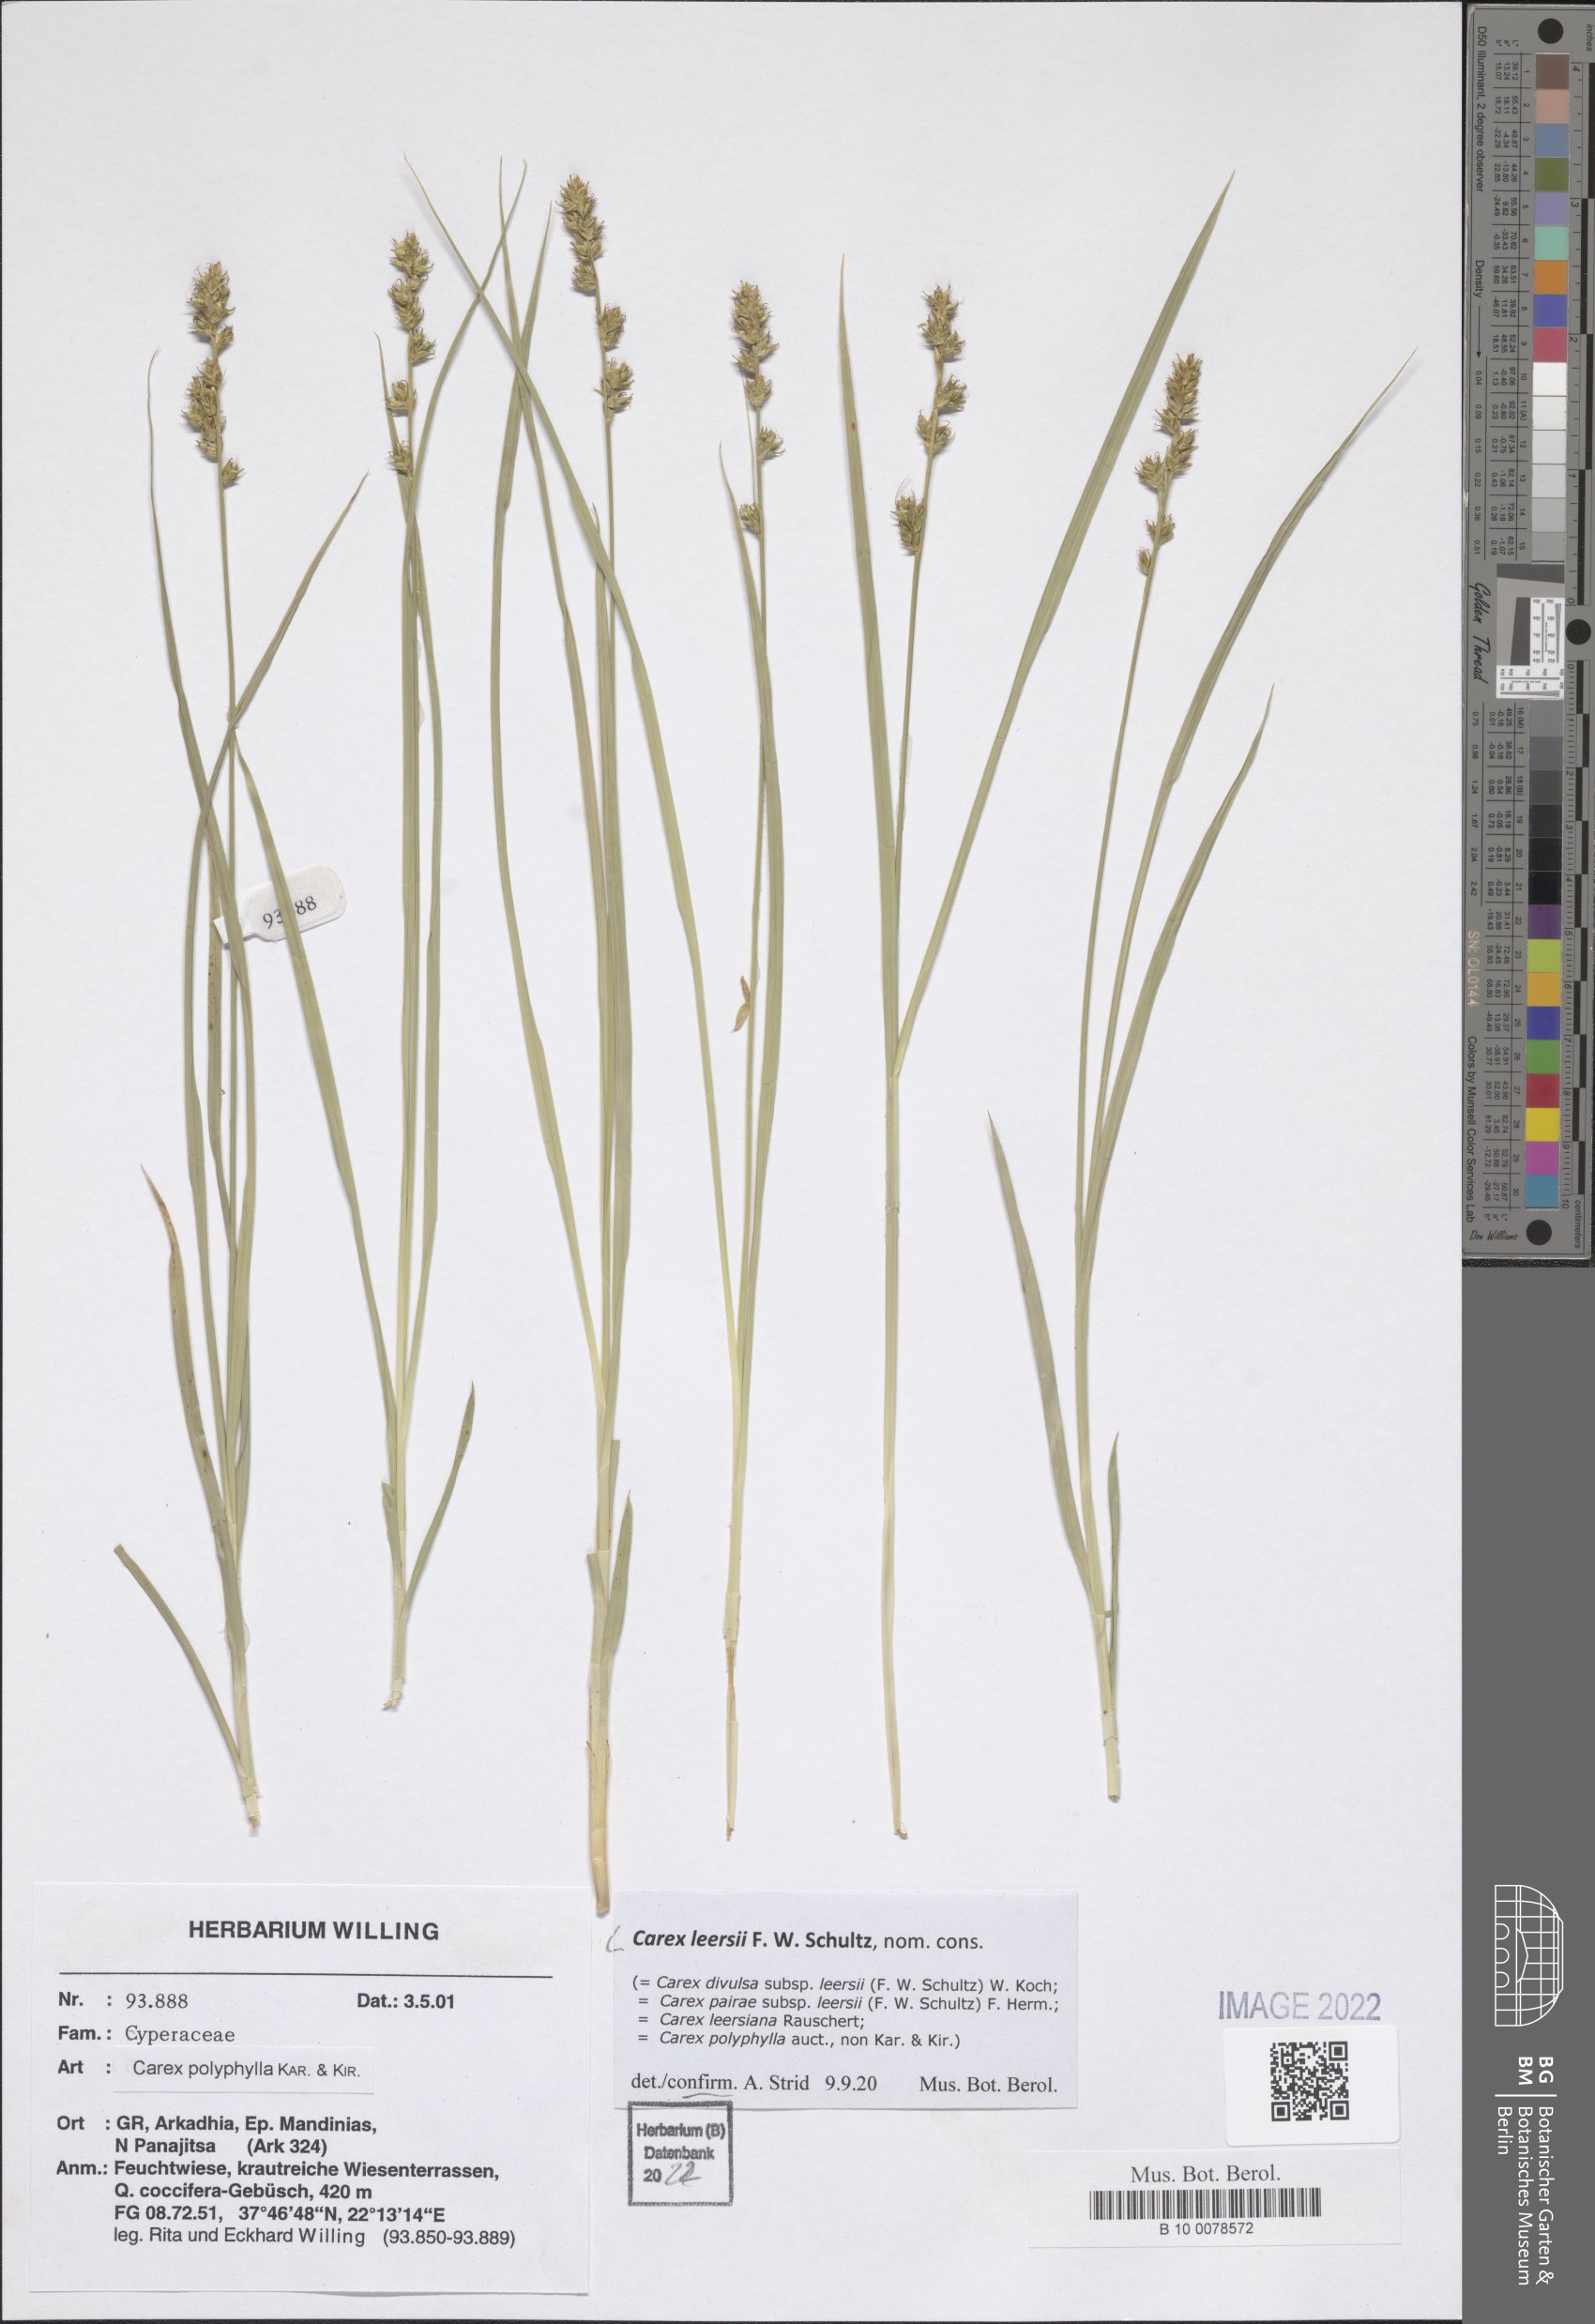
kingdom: Plantae
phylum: Tracheophyta
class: Liliopsida
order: Poales
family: Cyperaceae
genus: Carex
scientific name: Carex leersii
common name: Leers' sedge
